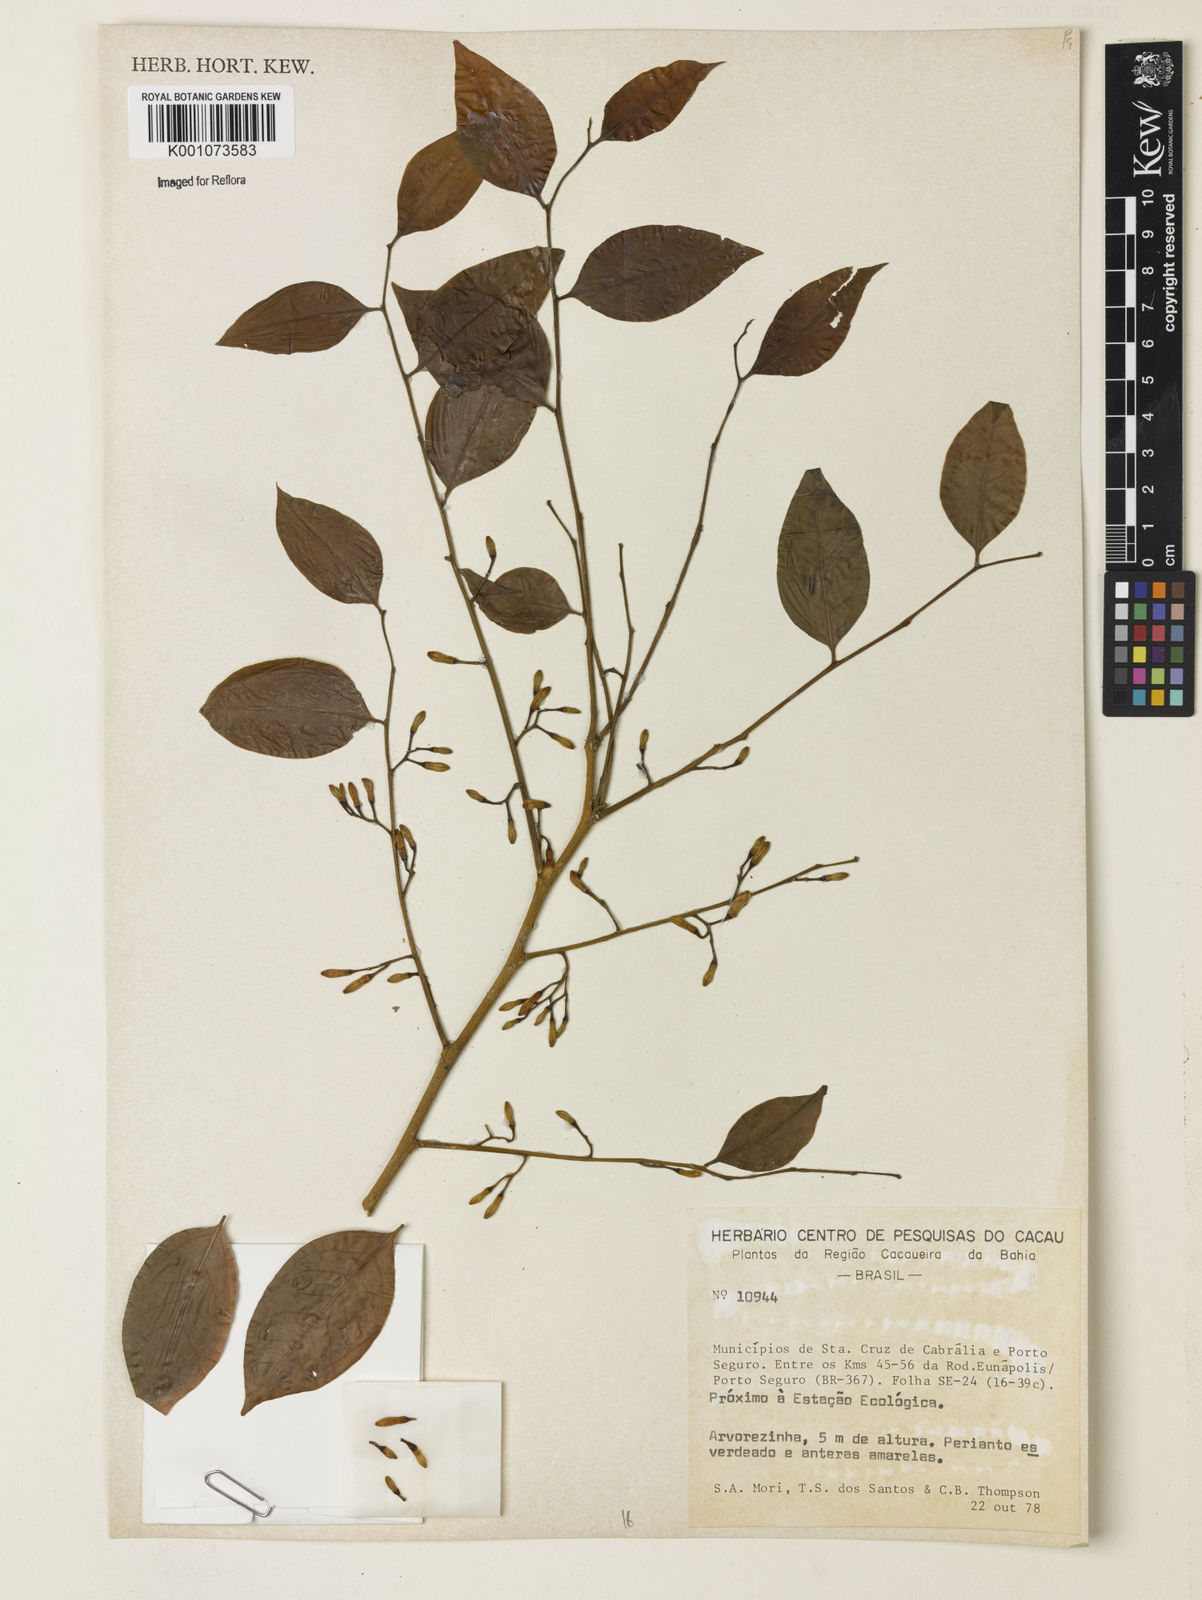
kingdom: Plantae
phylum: Tracheophyta
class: Magnoliopsida
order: Solanales
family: Solanaceae
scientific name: Solanaceae
